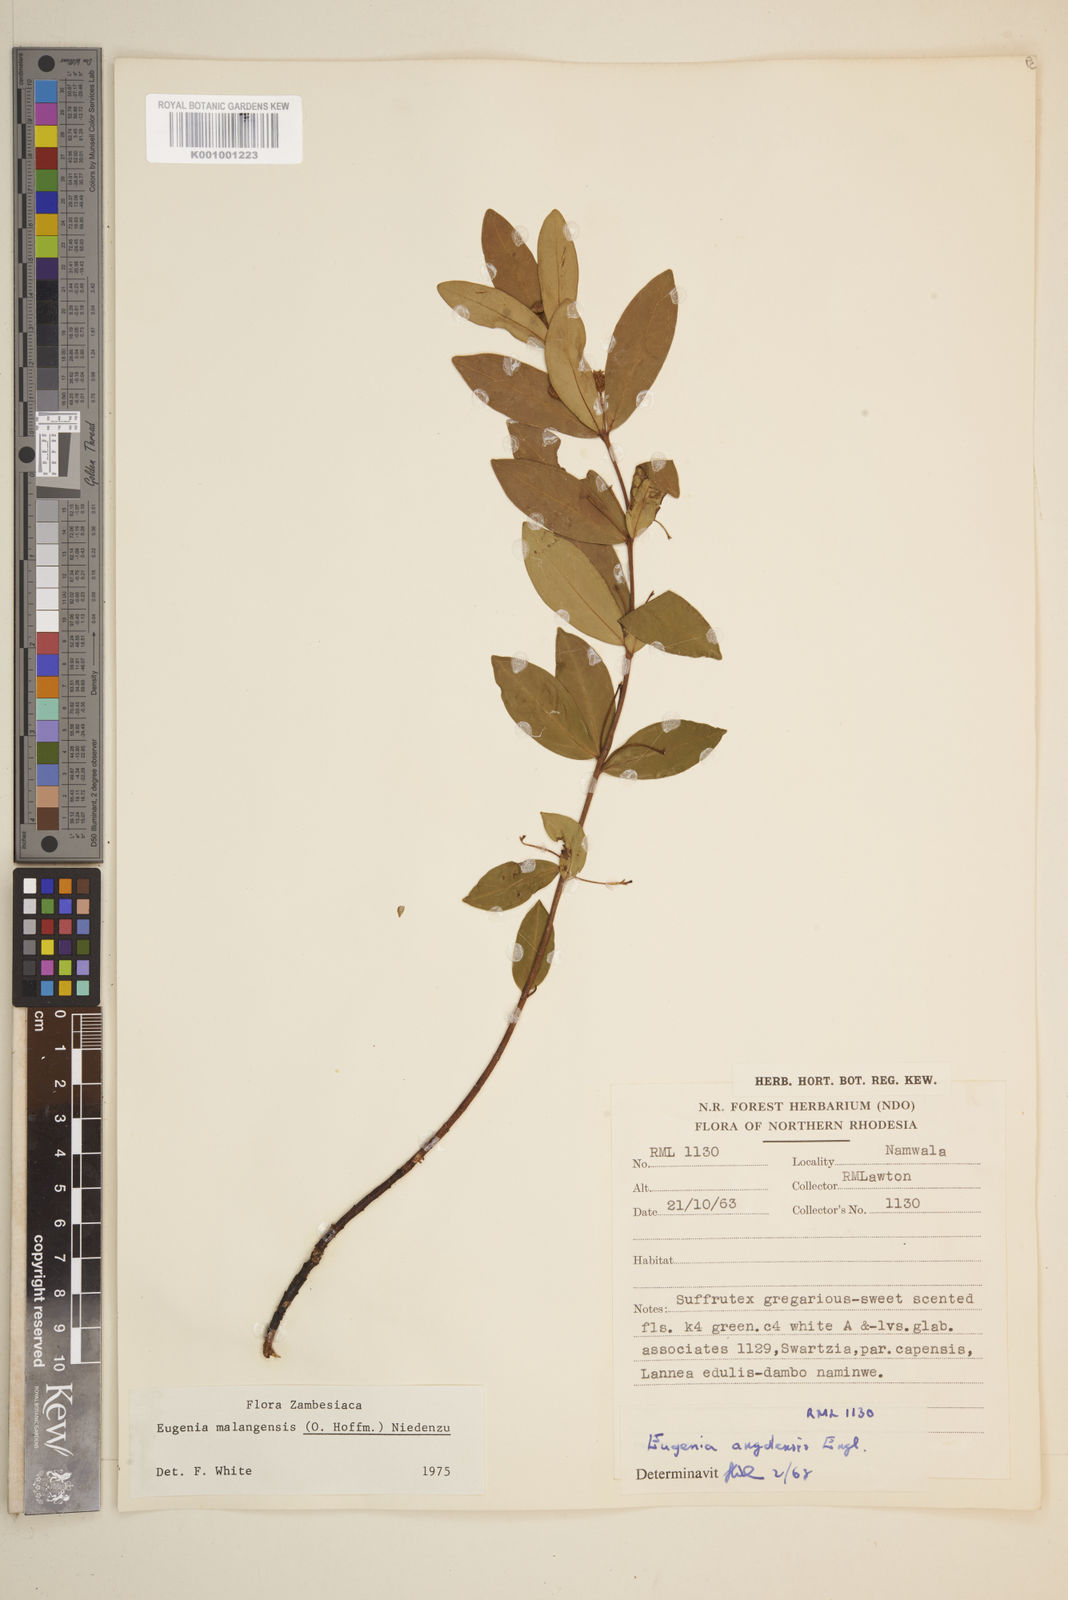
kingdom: Plantae
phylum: Tracheophyta
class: Magnoliopsida
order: Myrtales
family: Myrtaceae
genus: Eugenia
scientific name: Eugenia malangensis
